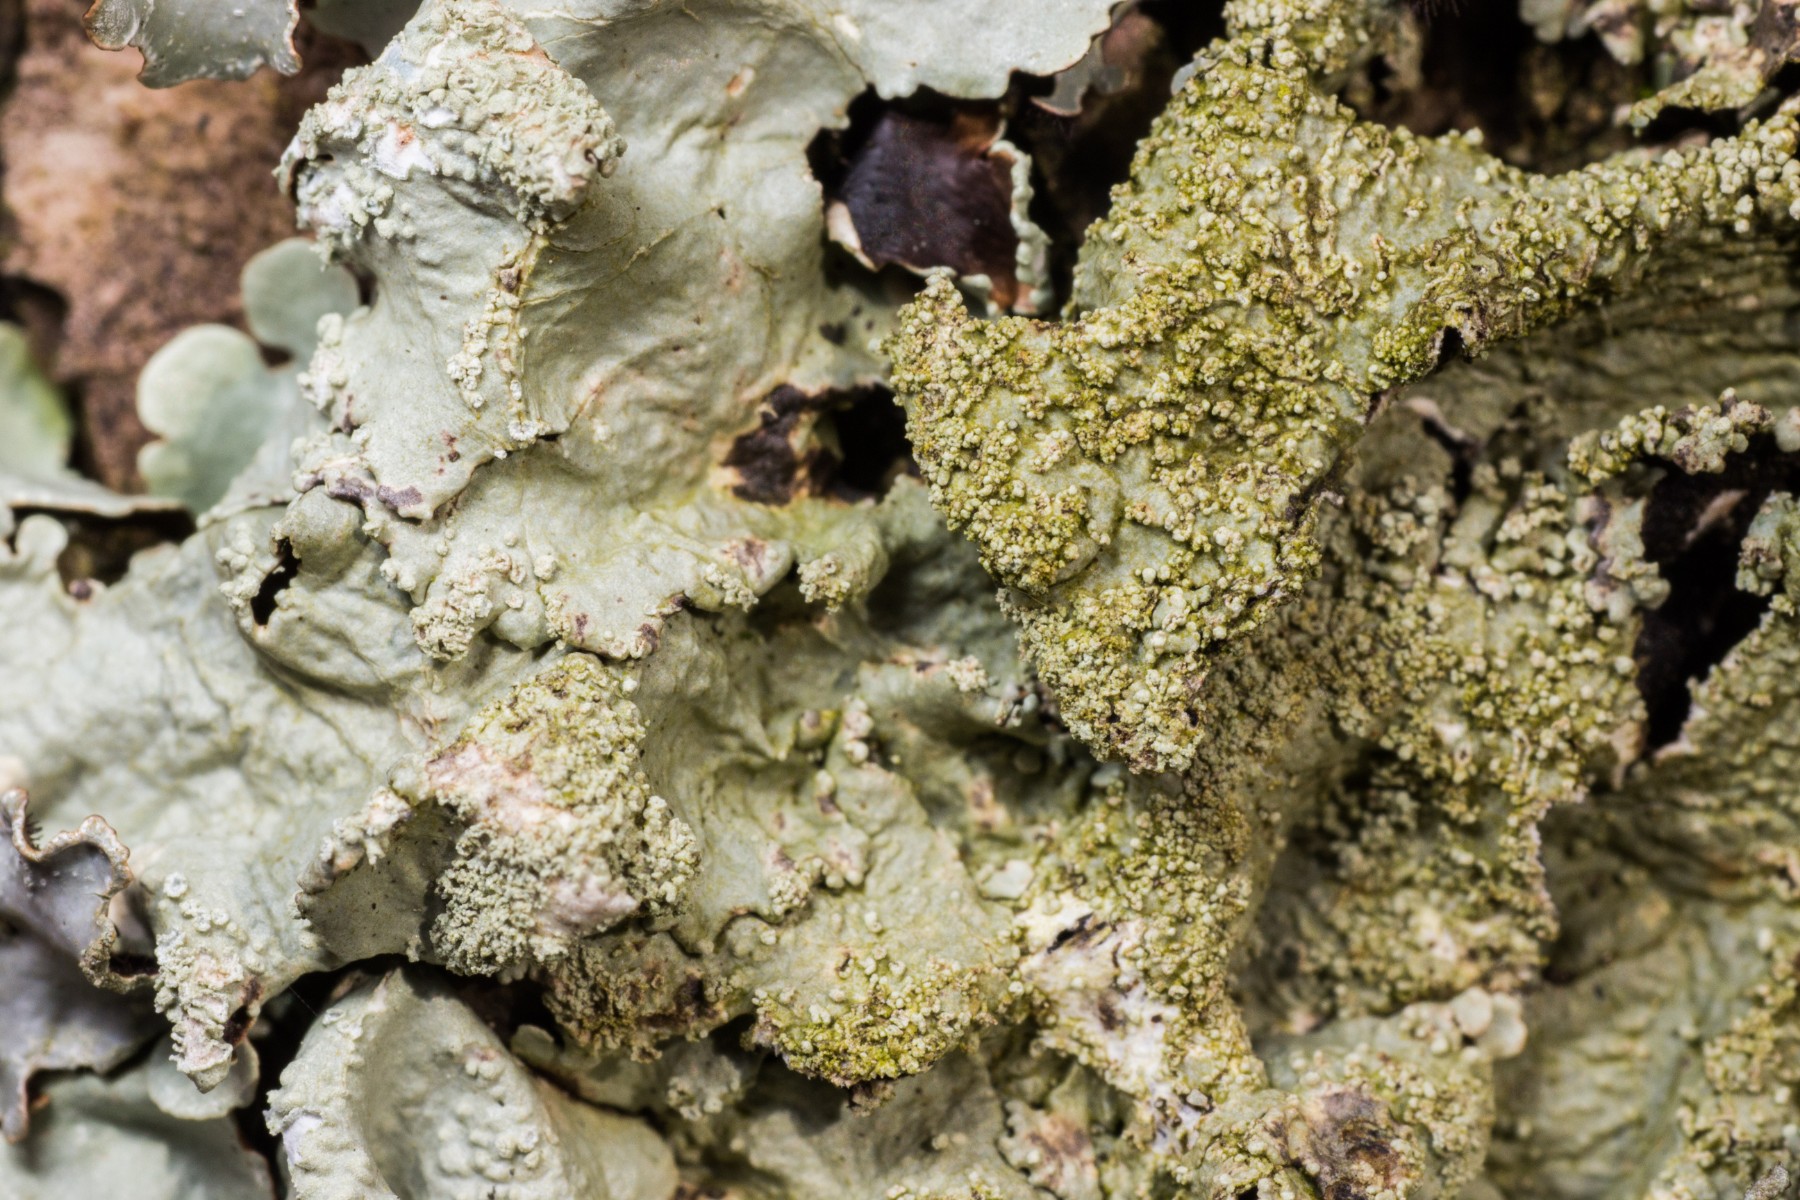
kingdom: Fungi
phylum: Ascomycota
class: Lecanoromycetes
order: Lecanorales
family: Parmeliaceae
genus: Flavoparmelia
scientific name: Flavoparmelia caperata
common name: gulgrøn skållav
